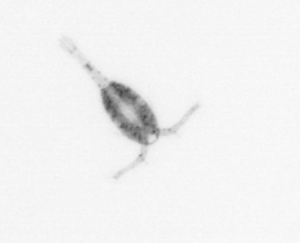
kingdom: Animalia
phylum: Arthropoda
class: Copepoda
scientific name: Copepoda
